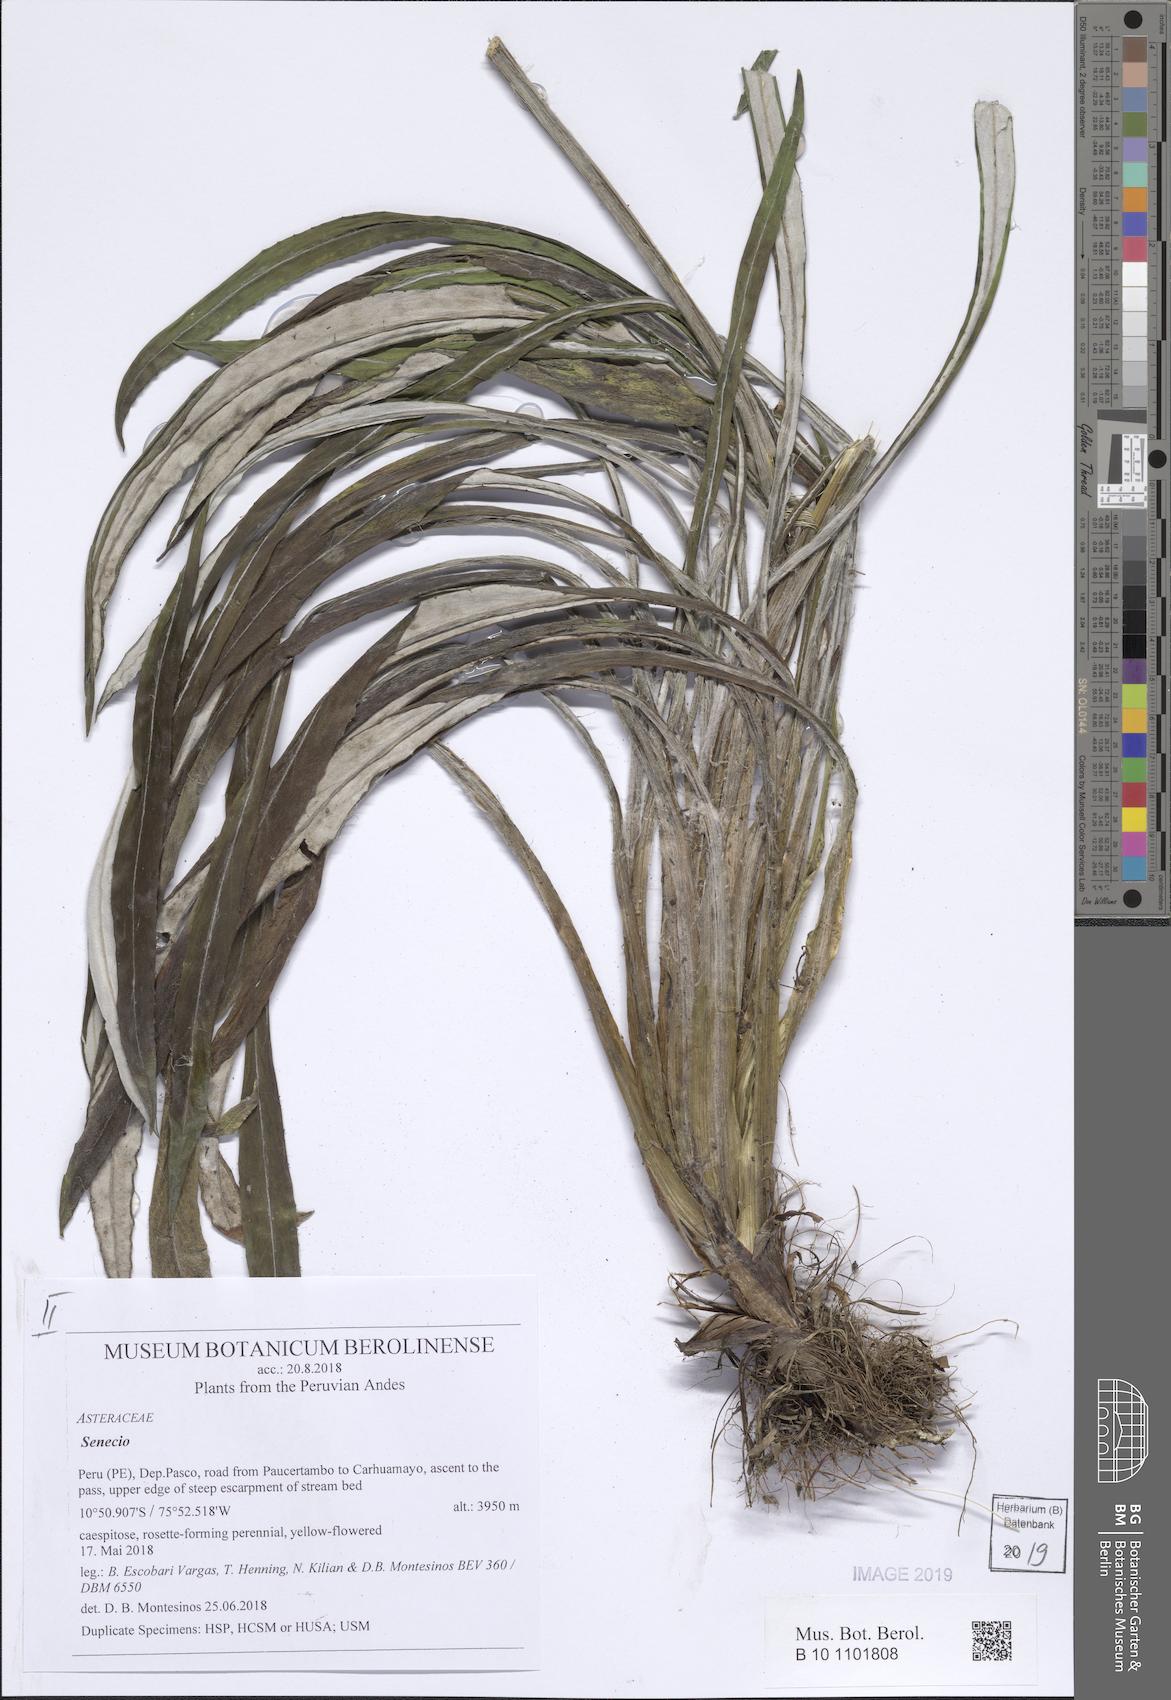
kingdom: Plantae
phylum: Tracheophyta
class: Magnoliopsida
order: Asterales
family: Asteraceae
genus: Senecio
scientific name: Senecio comosus
